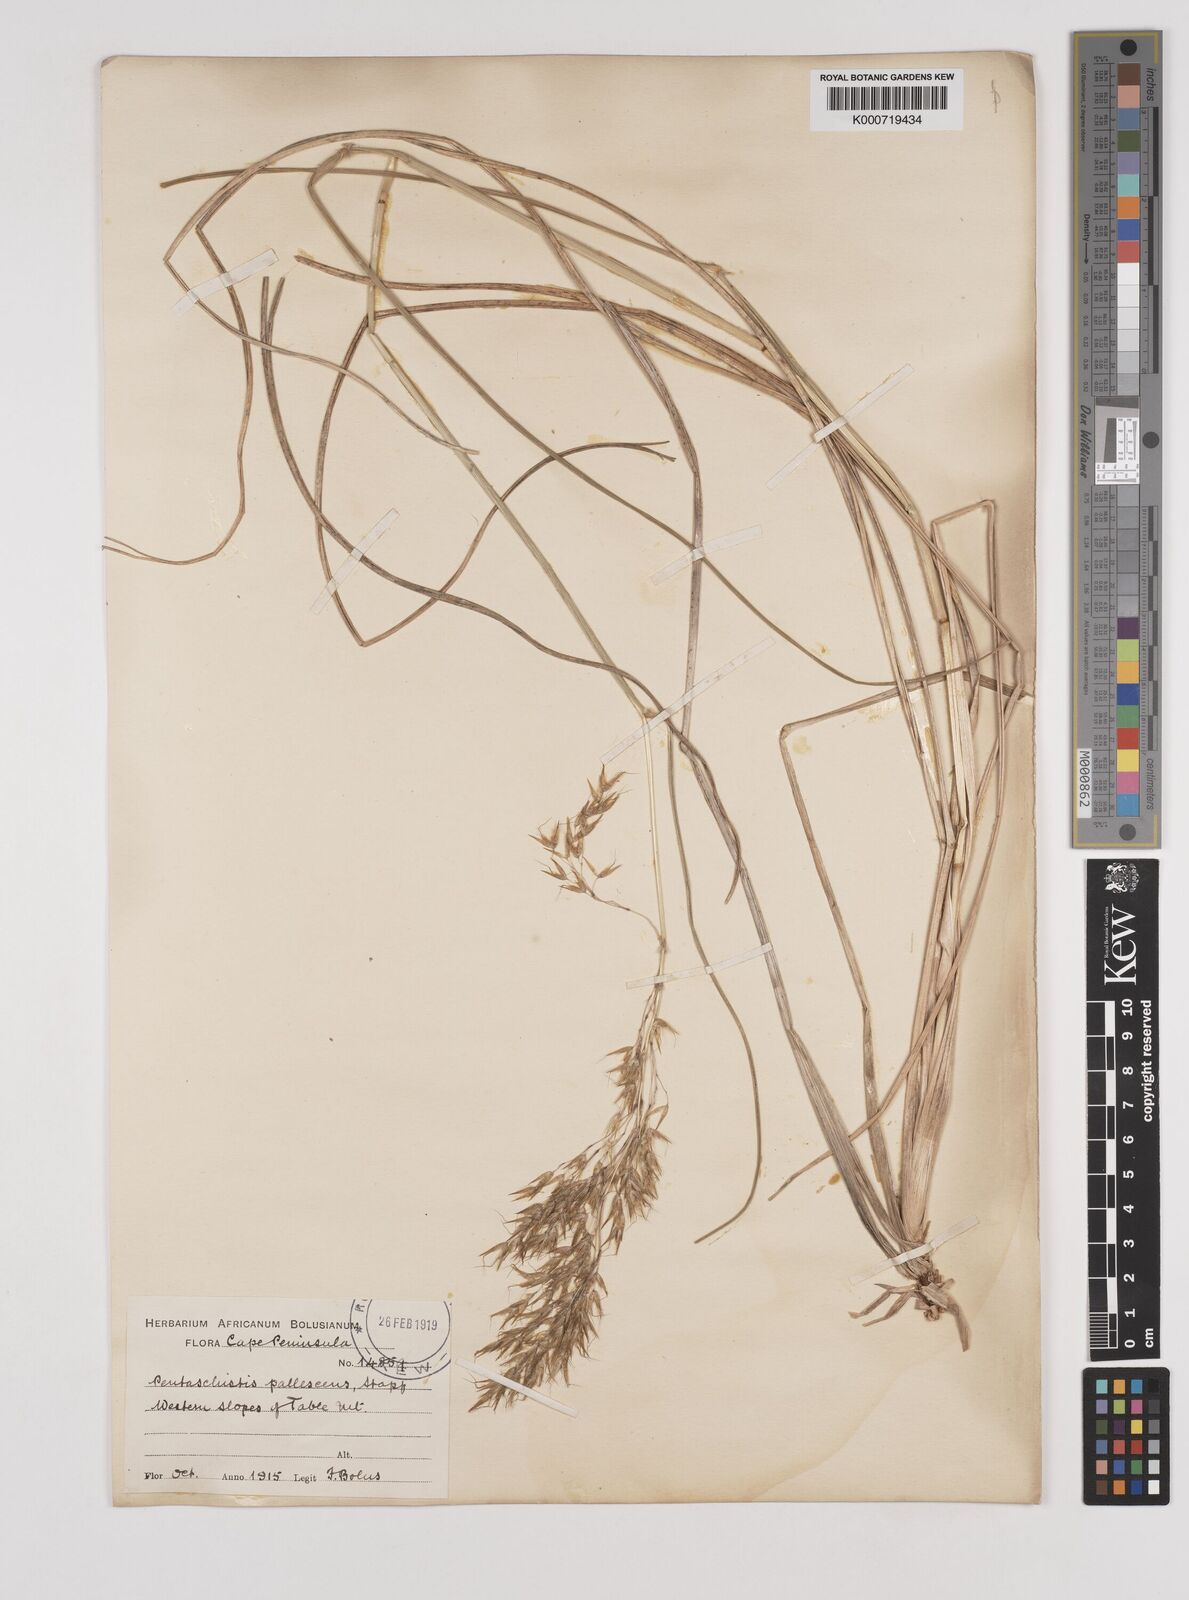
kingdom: Plantae
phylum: Tracheophyta
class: Liliopsida
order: Poales
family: Poaceae
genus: Pentameris
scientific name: Pentameris pallescens
